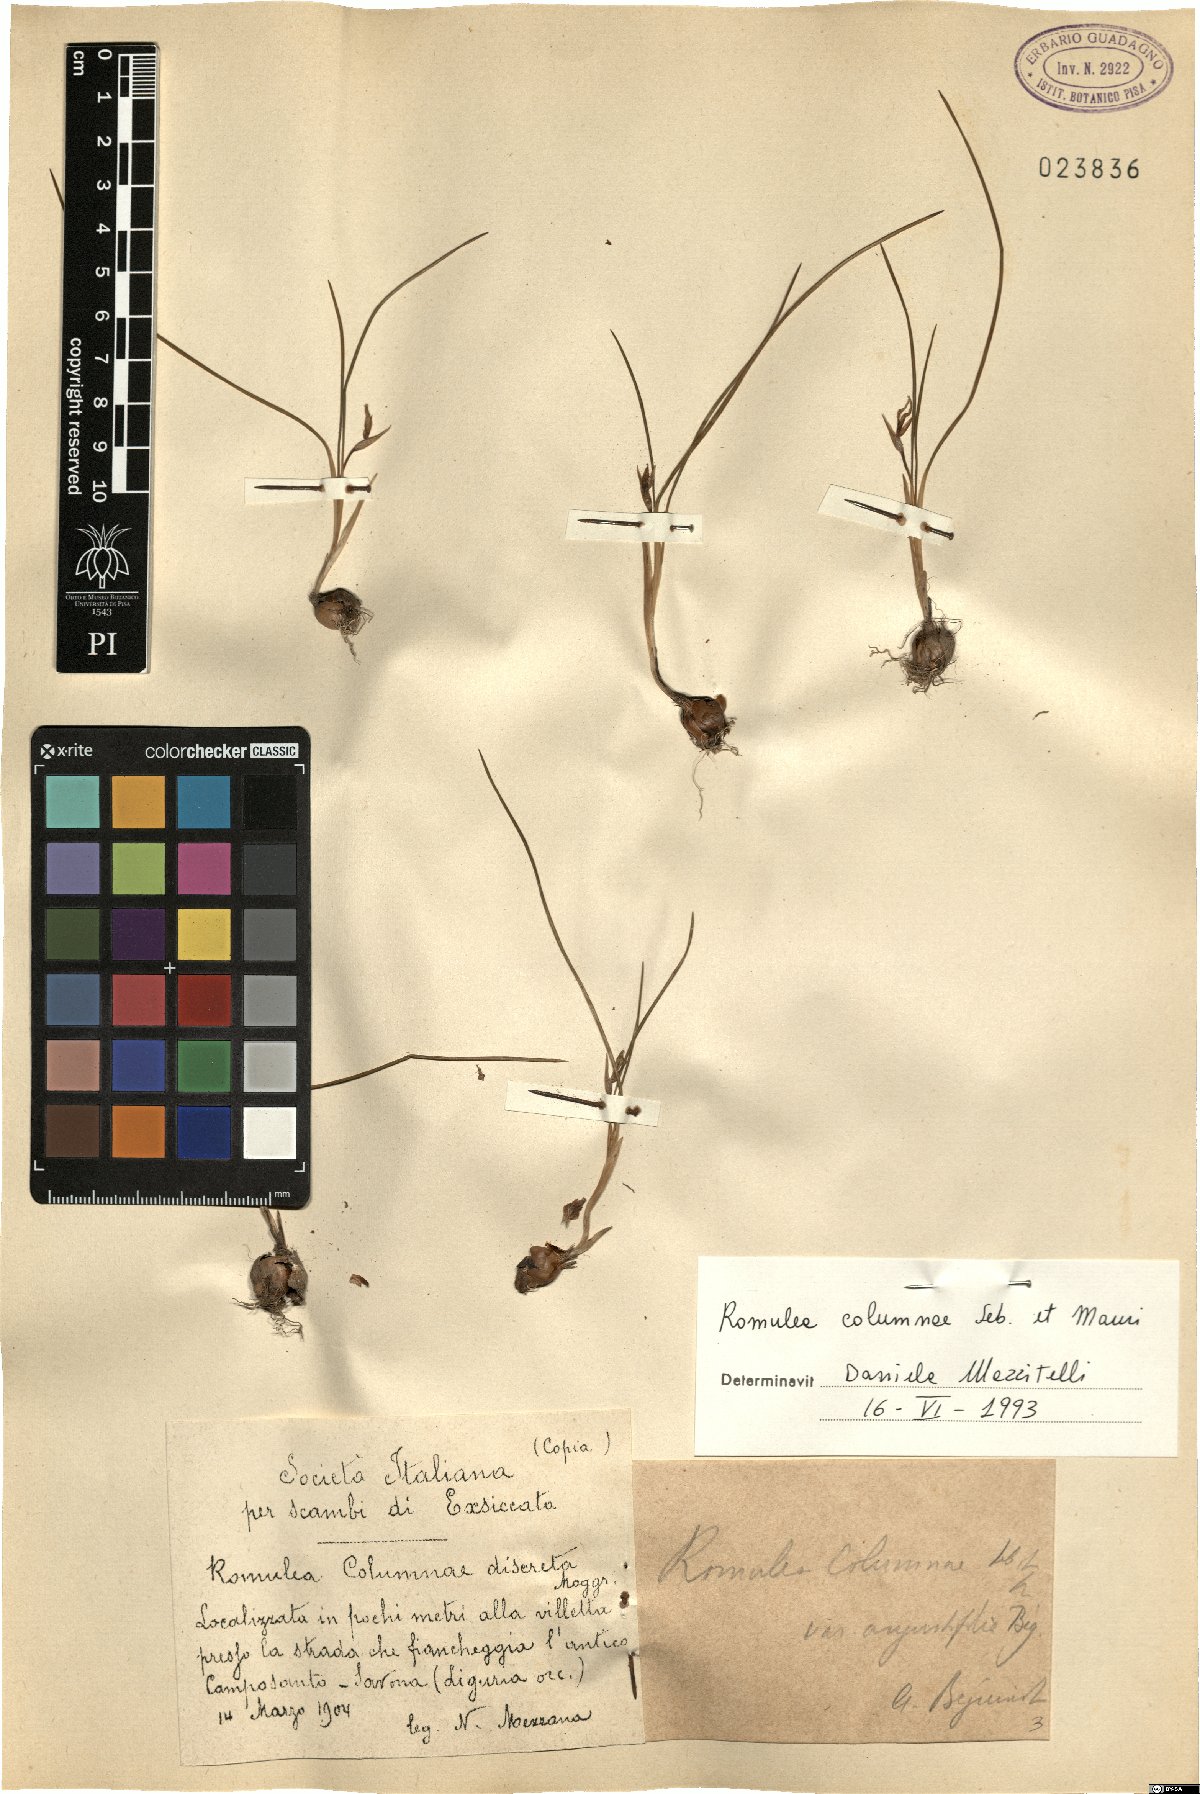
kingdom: Plantae
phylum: Tracheophyta
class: Liliopsida
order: Asparagales
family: Iridaceae
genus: Romulea
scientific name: Romulea columnae
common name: Sand-crocus
